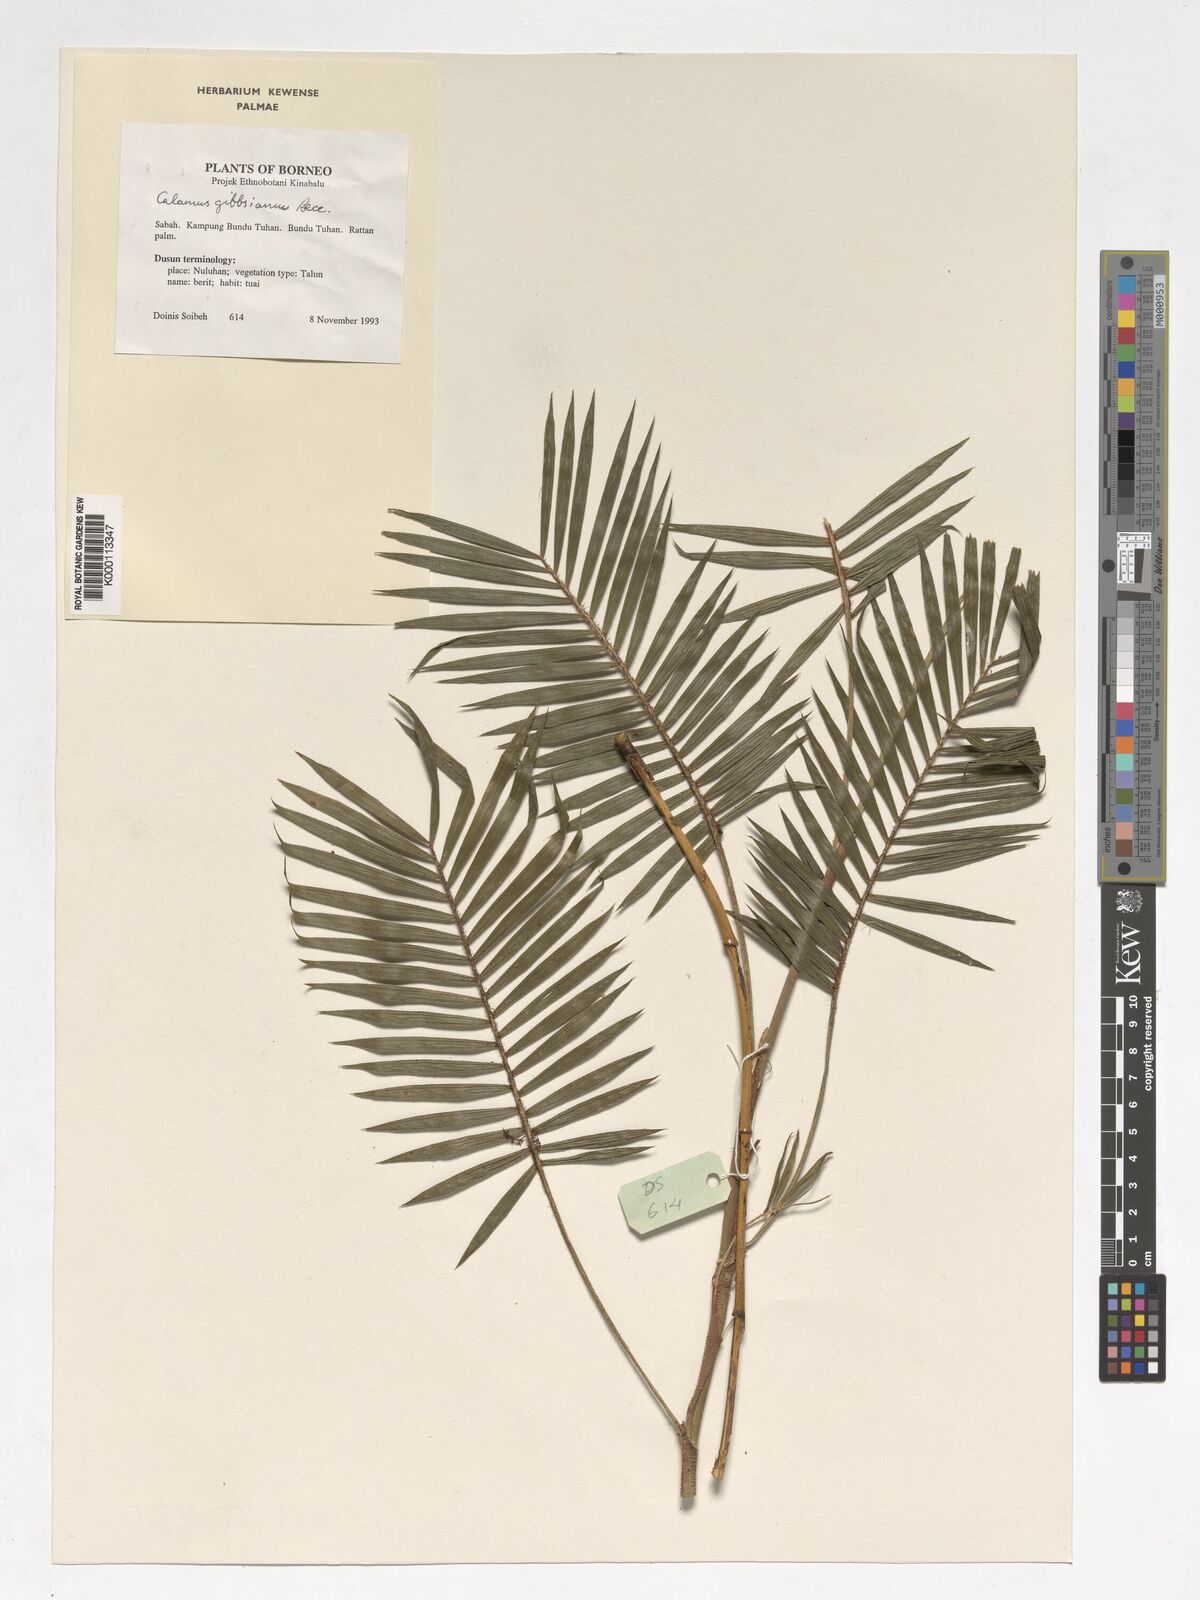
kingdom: Plantae
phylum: Tracheophyta
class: Liliopsida
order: Arecales
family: Arecaceae
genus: Calamus
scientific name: Calamus gibbsianus
